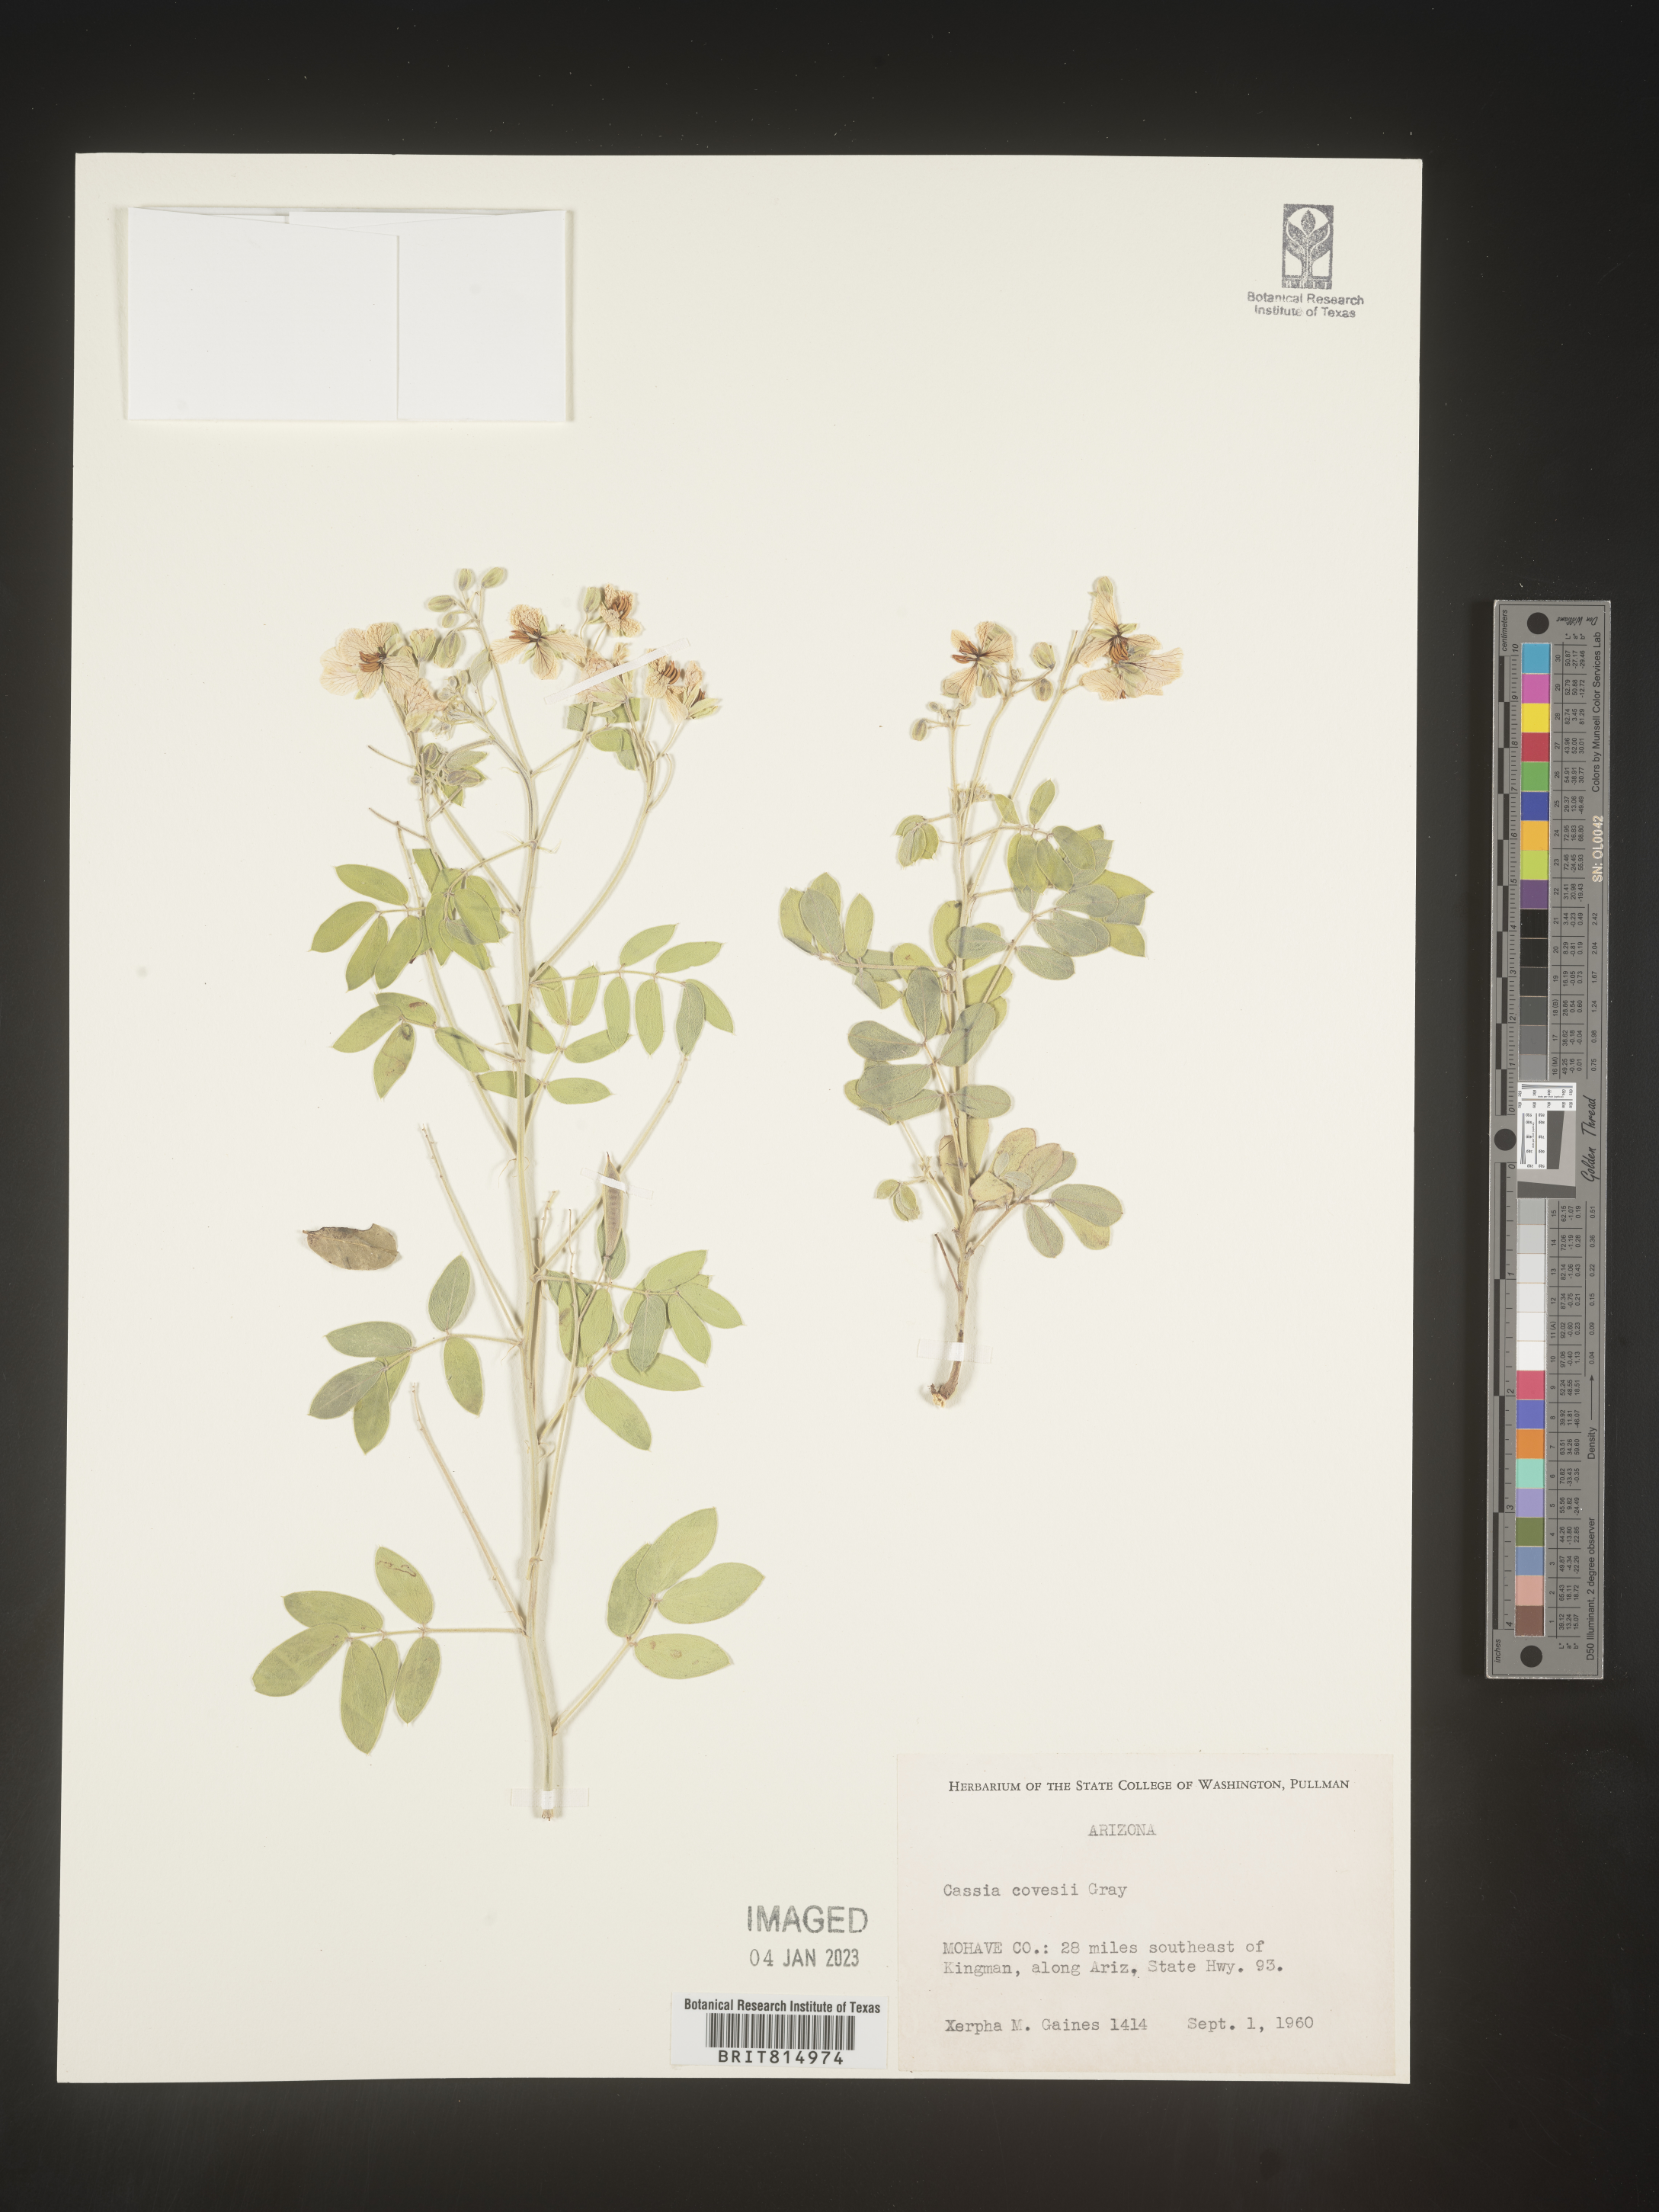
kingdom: Plantae
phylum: Tracheophyta
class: Magnoliopsida
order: Fabales
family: Fabaceae
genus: Cassia
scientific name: Cassia
